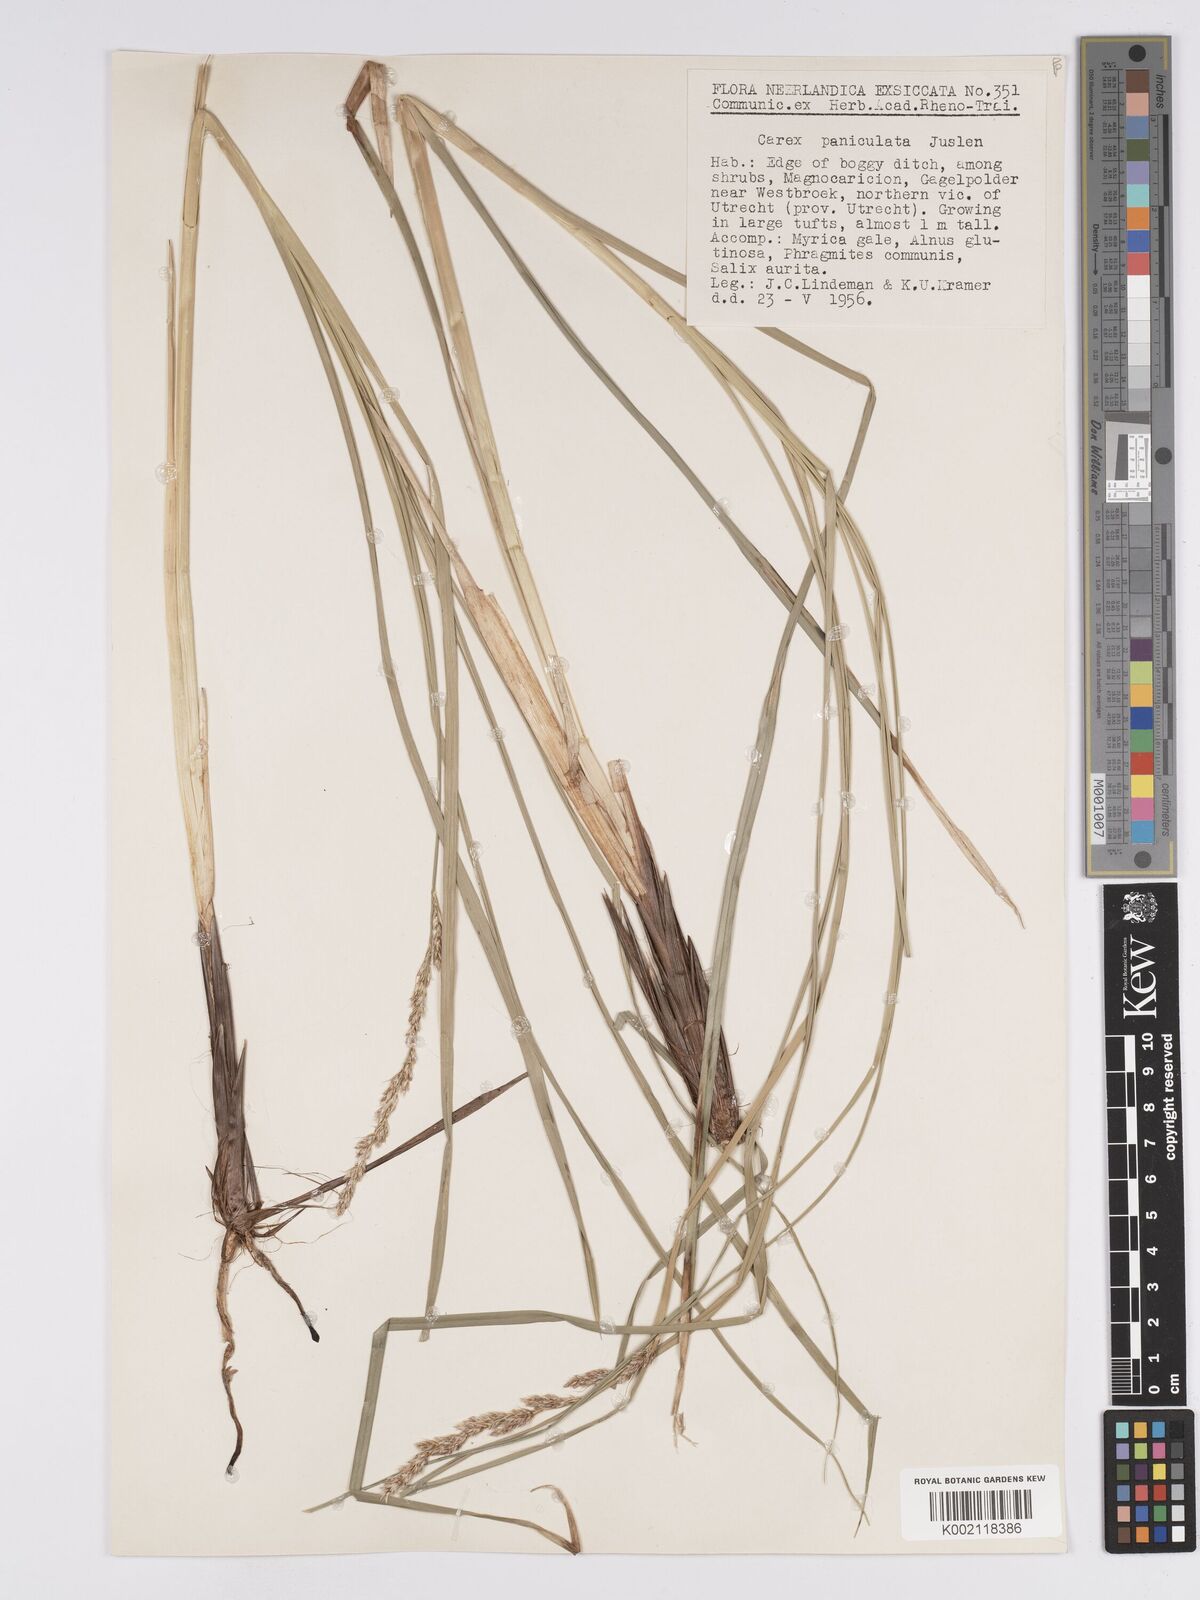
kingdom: Plantae
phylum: Tracheophyta
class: Liliopsida
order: Poales
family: Cyperaceae
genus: Carex
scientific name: Carex paniculata
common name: Greater tussock-sedge
